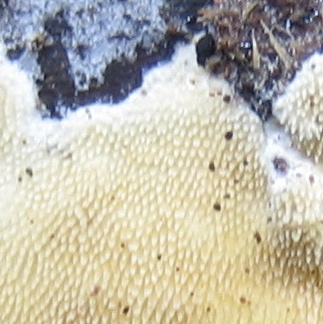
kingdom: Fungi
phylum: Basidiomycota
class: Agaricomycetes
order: Polyporales
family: Steccherinaceae
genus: Steccherinum
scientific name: Steccherinum ochraceum
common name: almindelig skønpig
